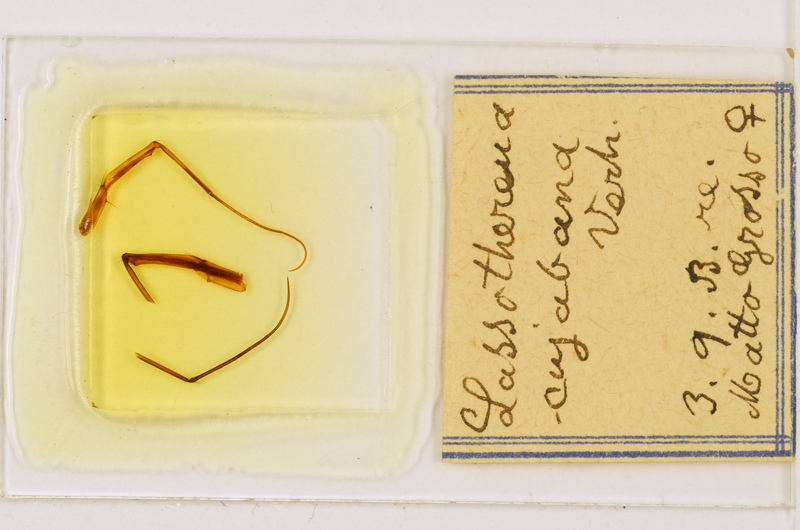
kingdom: Animalia
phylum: Arthropoda
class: Chilopoda
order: Scutigeromorpha
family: Pselliodidae
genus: Sphendononema
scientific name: Sphendononema guildingii
